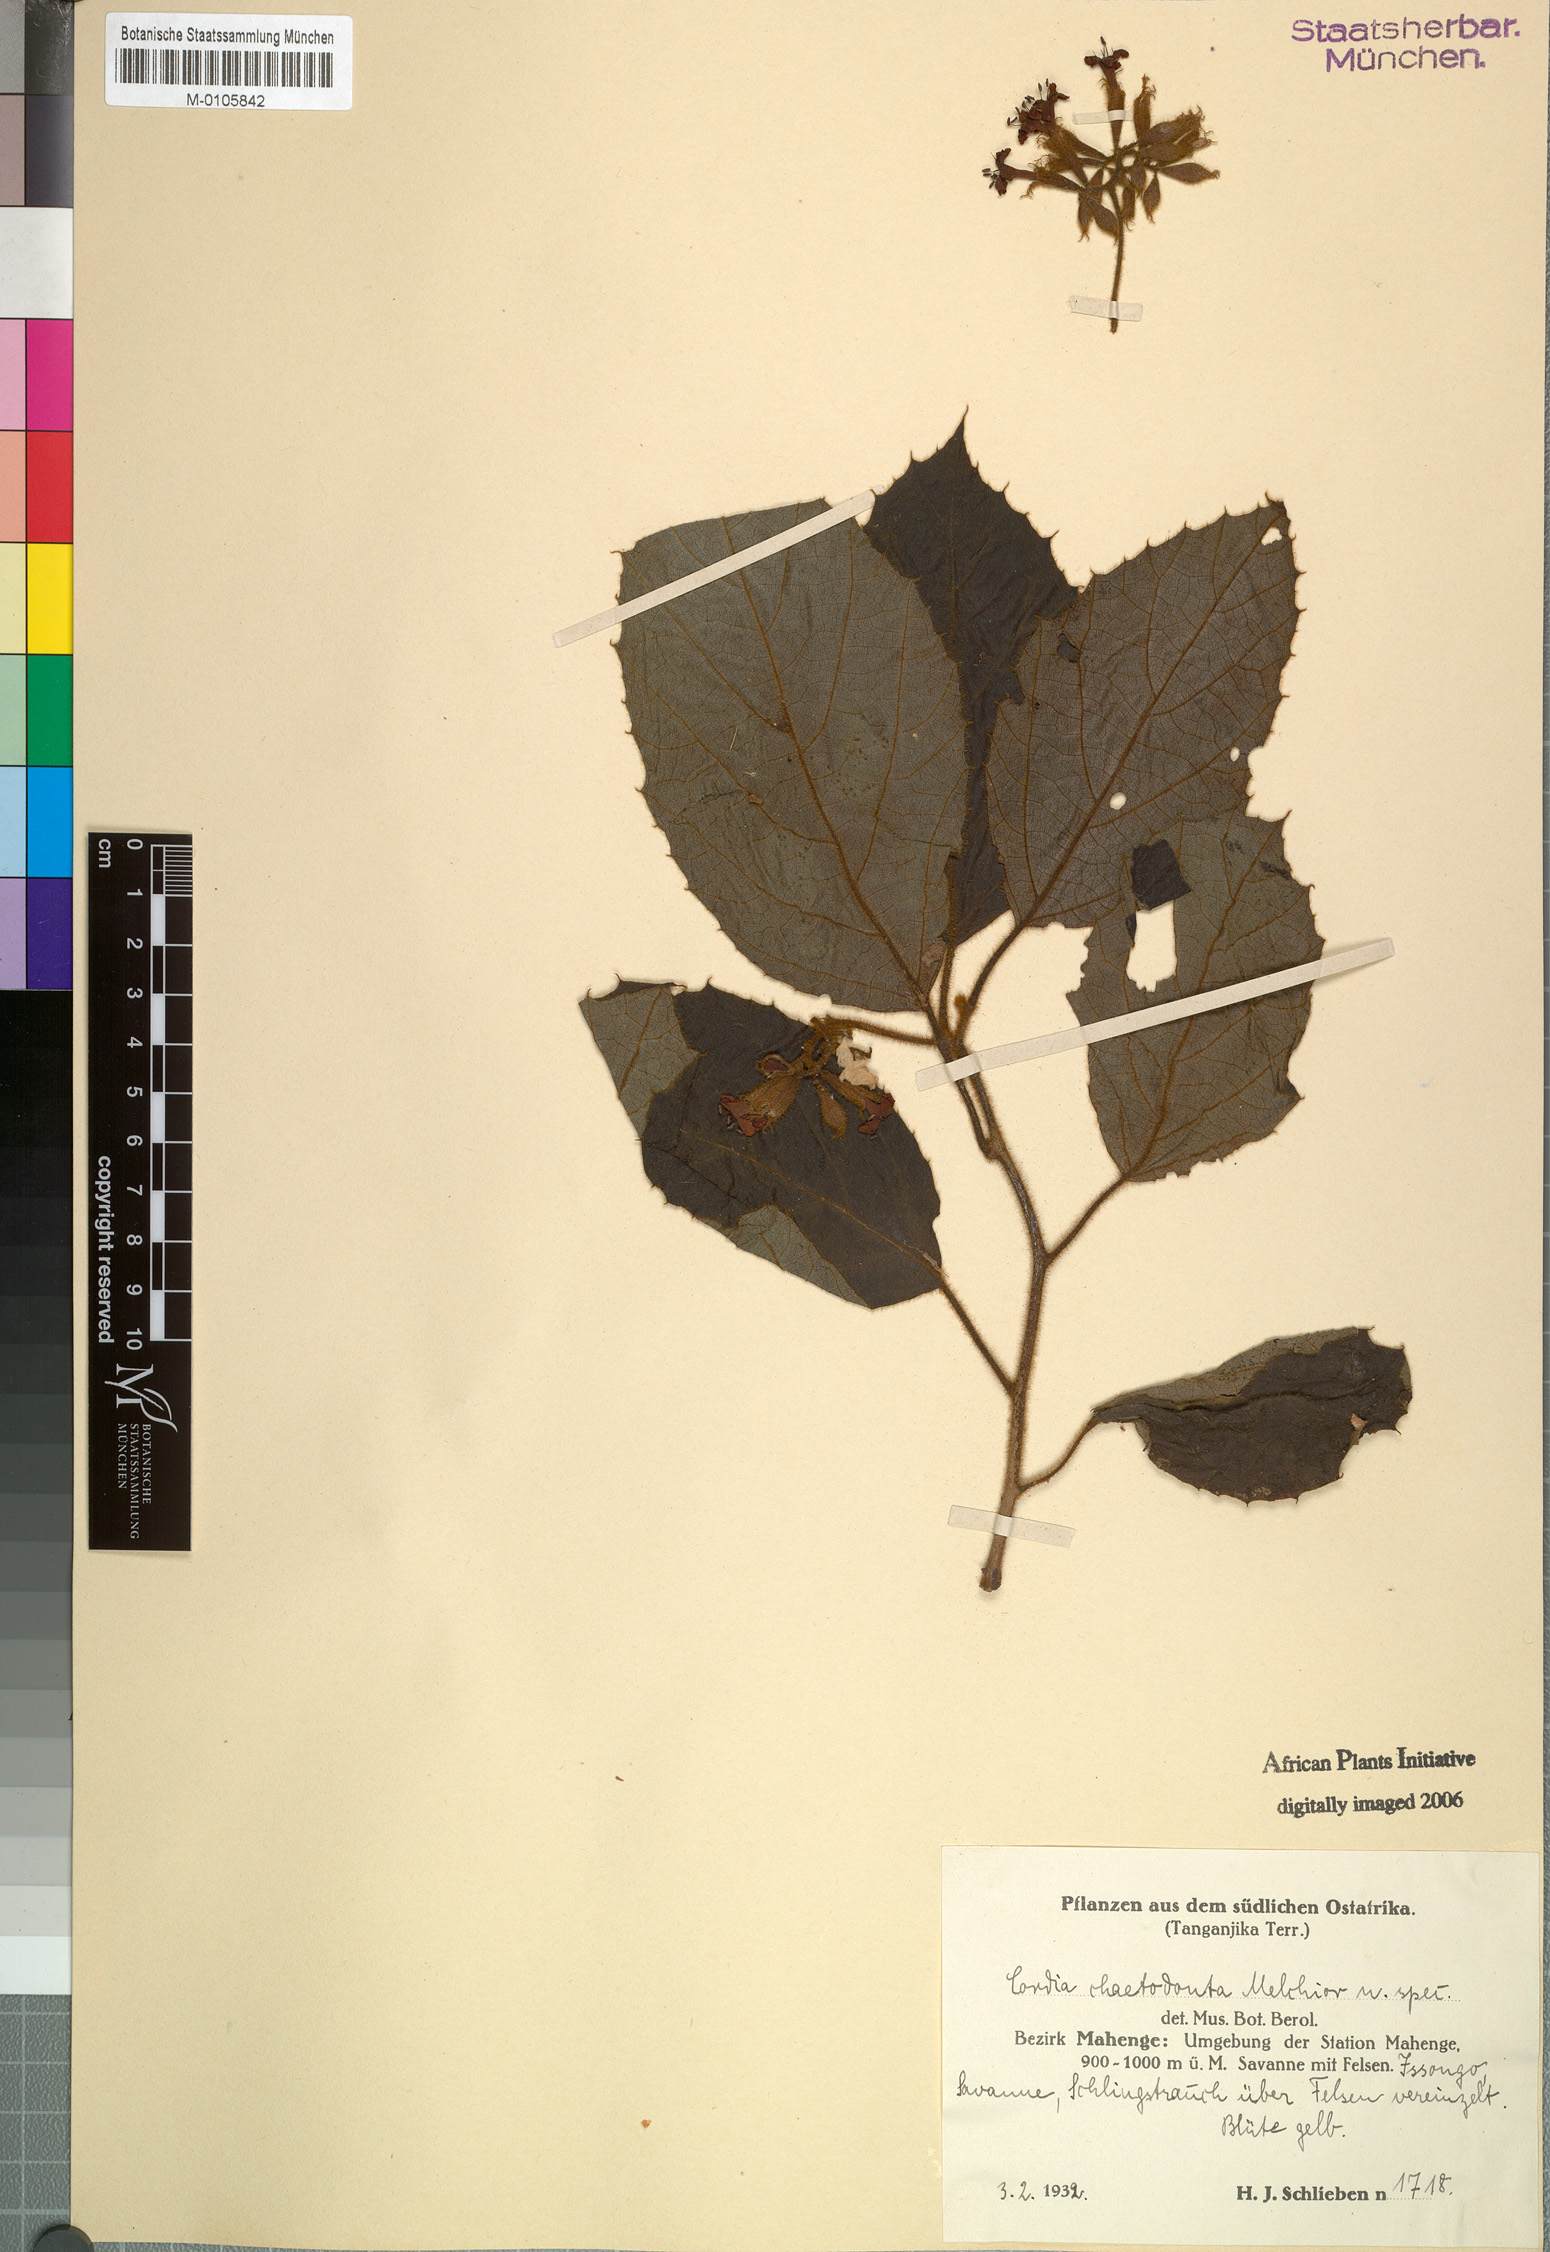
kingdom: Plantae
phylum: Tracheophyta
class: Magnoliopsida
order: Boraginales
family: Cordiaceae
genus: Cordia
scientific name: Cordia chaetodonta
